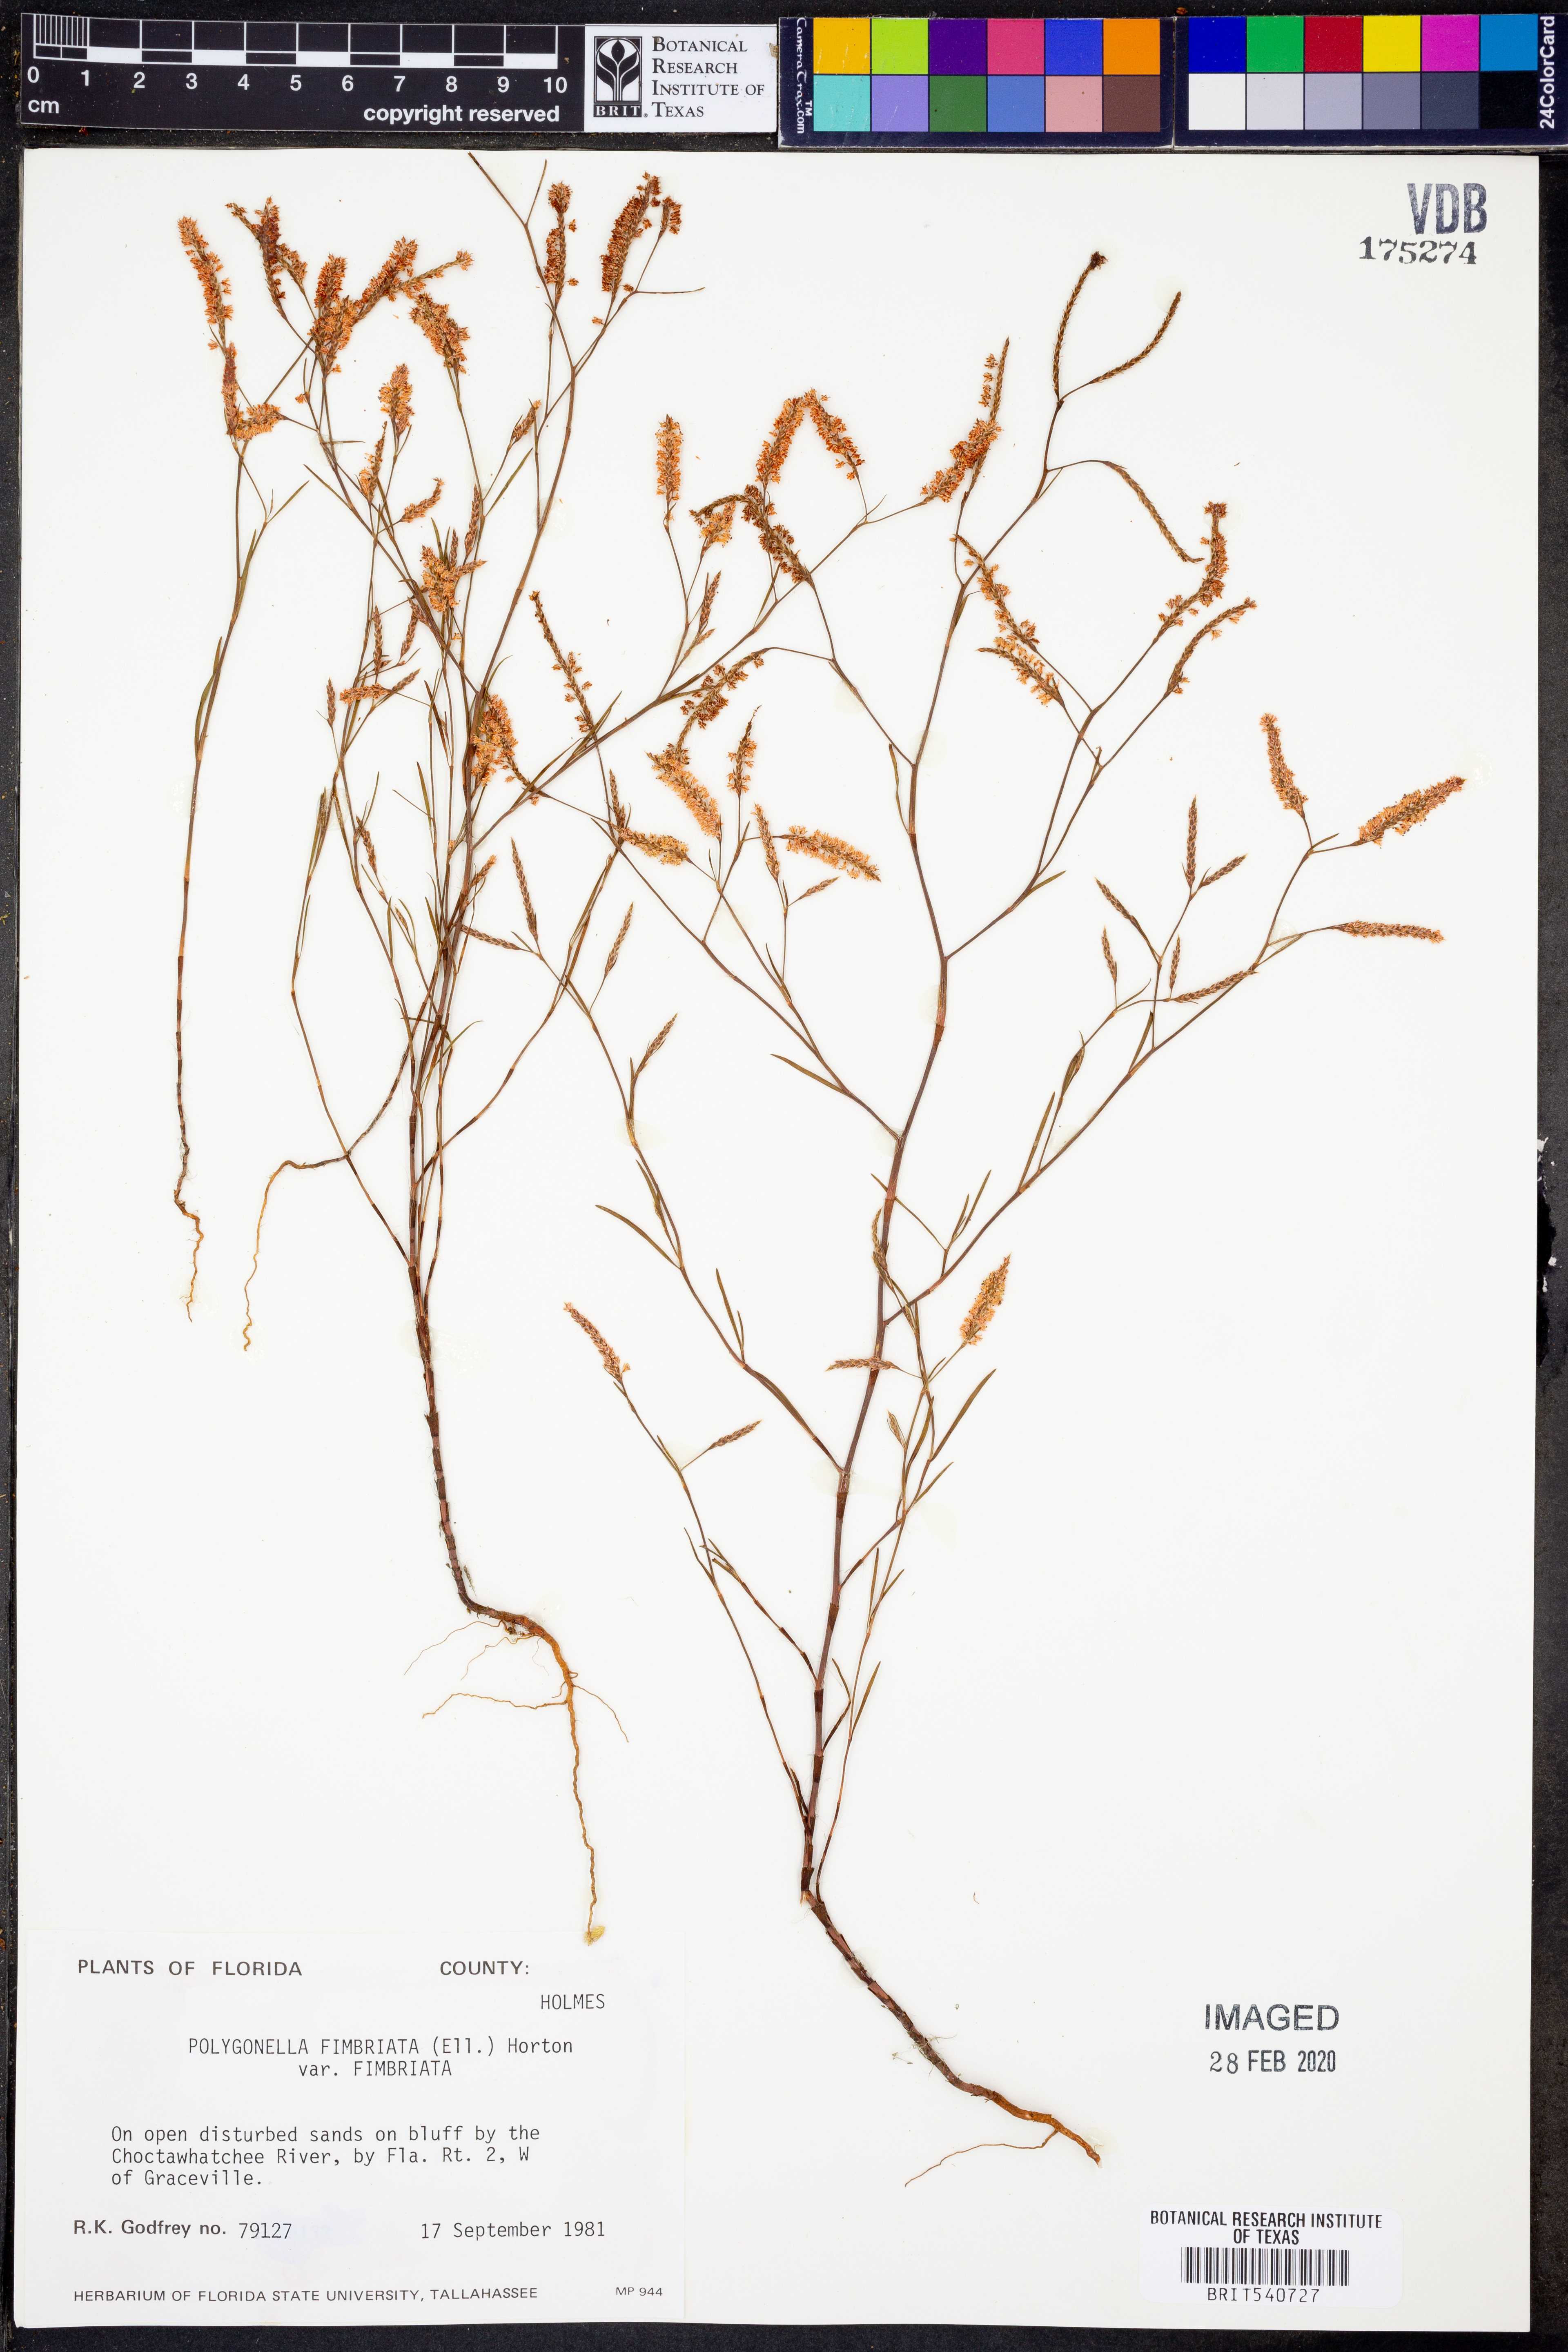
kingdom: Plantae
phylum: Tracheophyta
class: Magnoliopsida
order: Caryophyllales
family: Polygonaceae
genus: Polygonella
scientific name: Polygonella fimbriata
